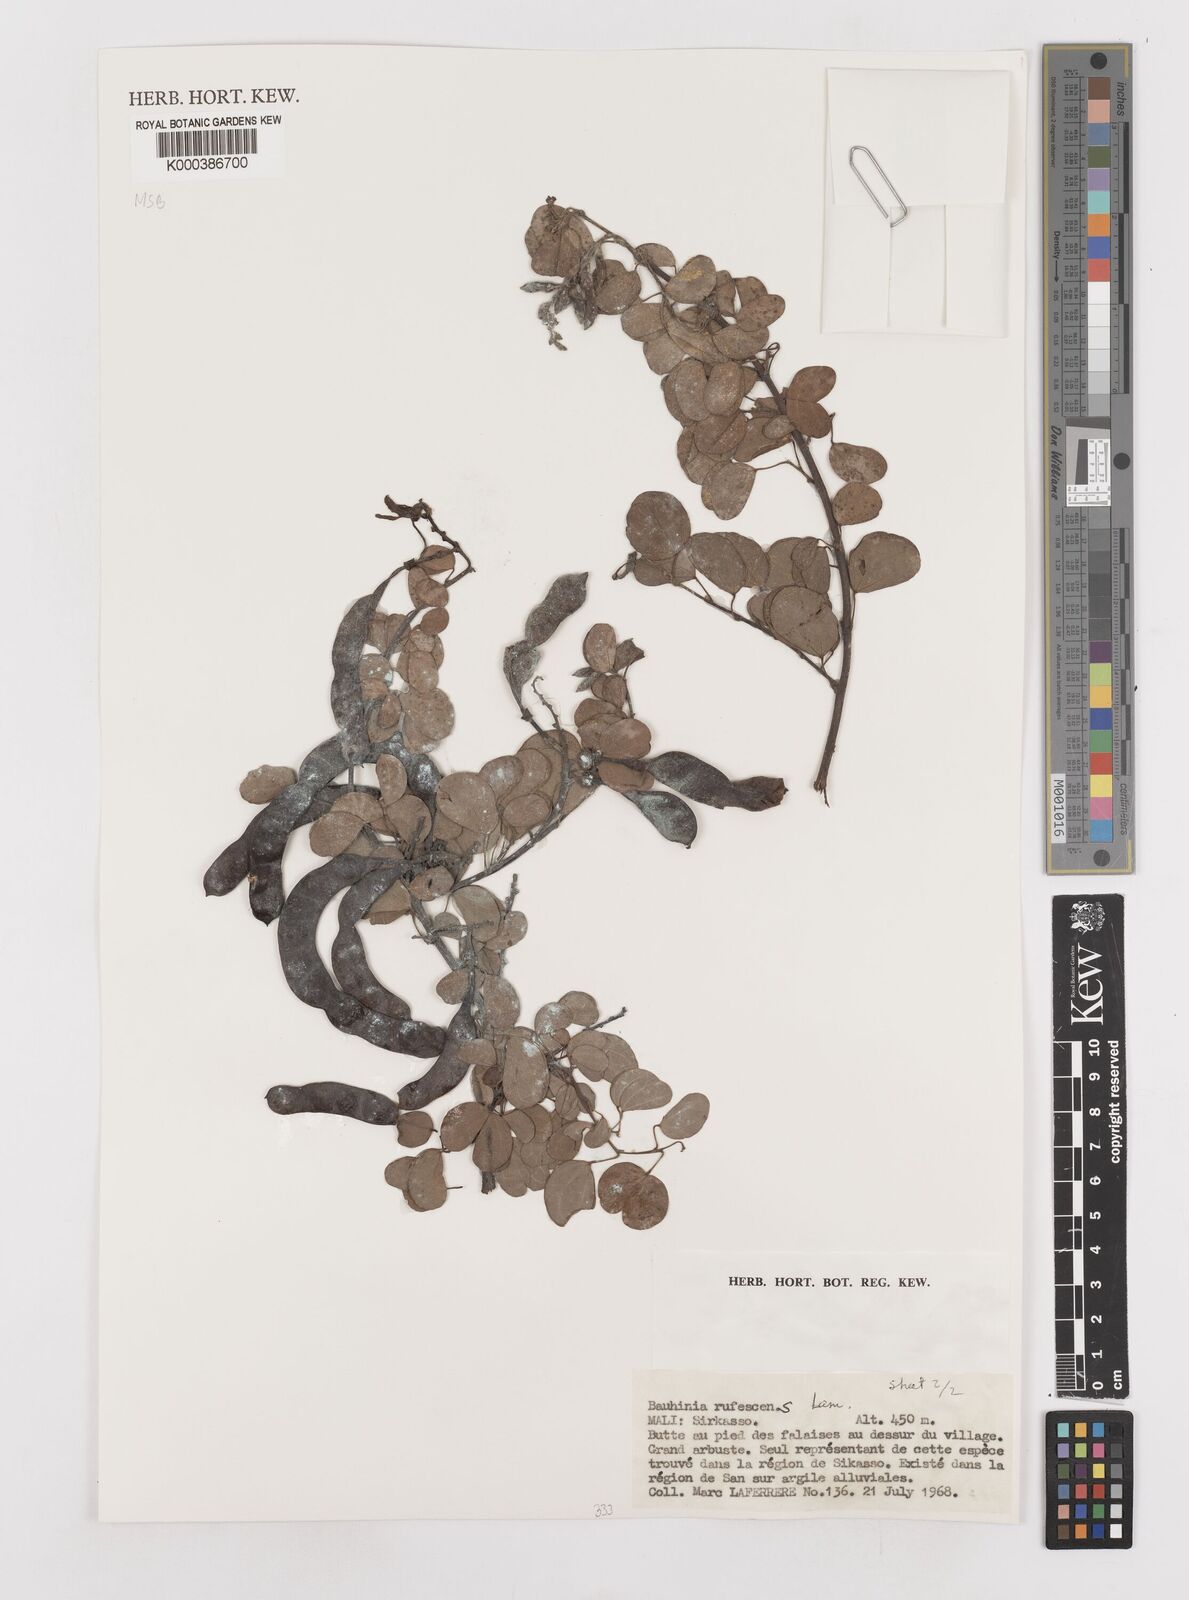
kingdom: Plantae
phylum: Tracheophyta
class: Magnoliopsida
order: Fabales
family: Fabaceae
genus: Bauhinia
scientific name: Bauhinia rufescens
